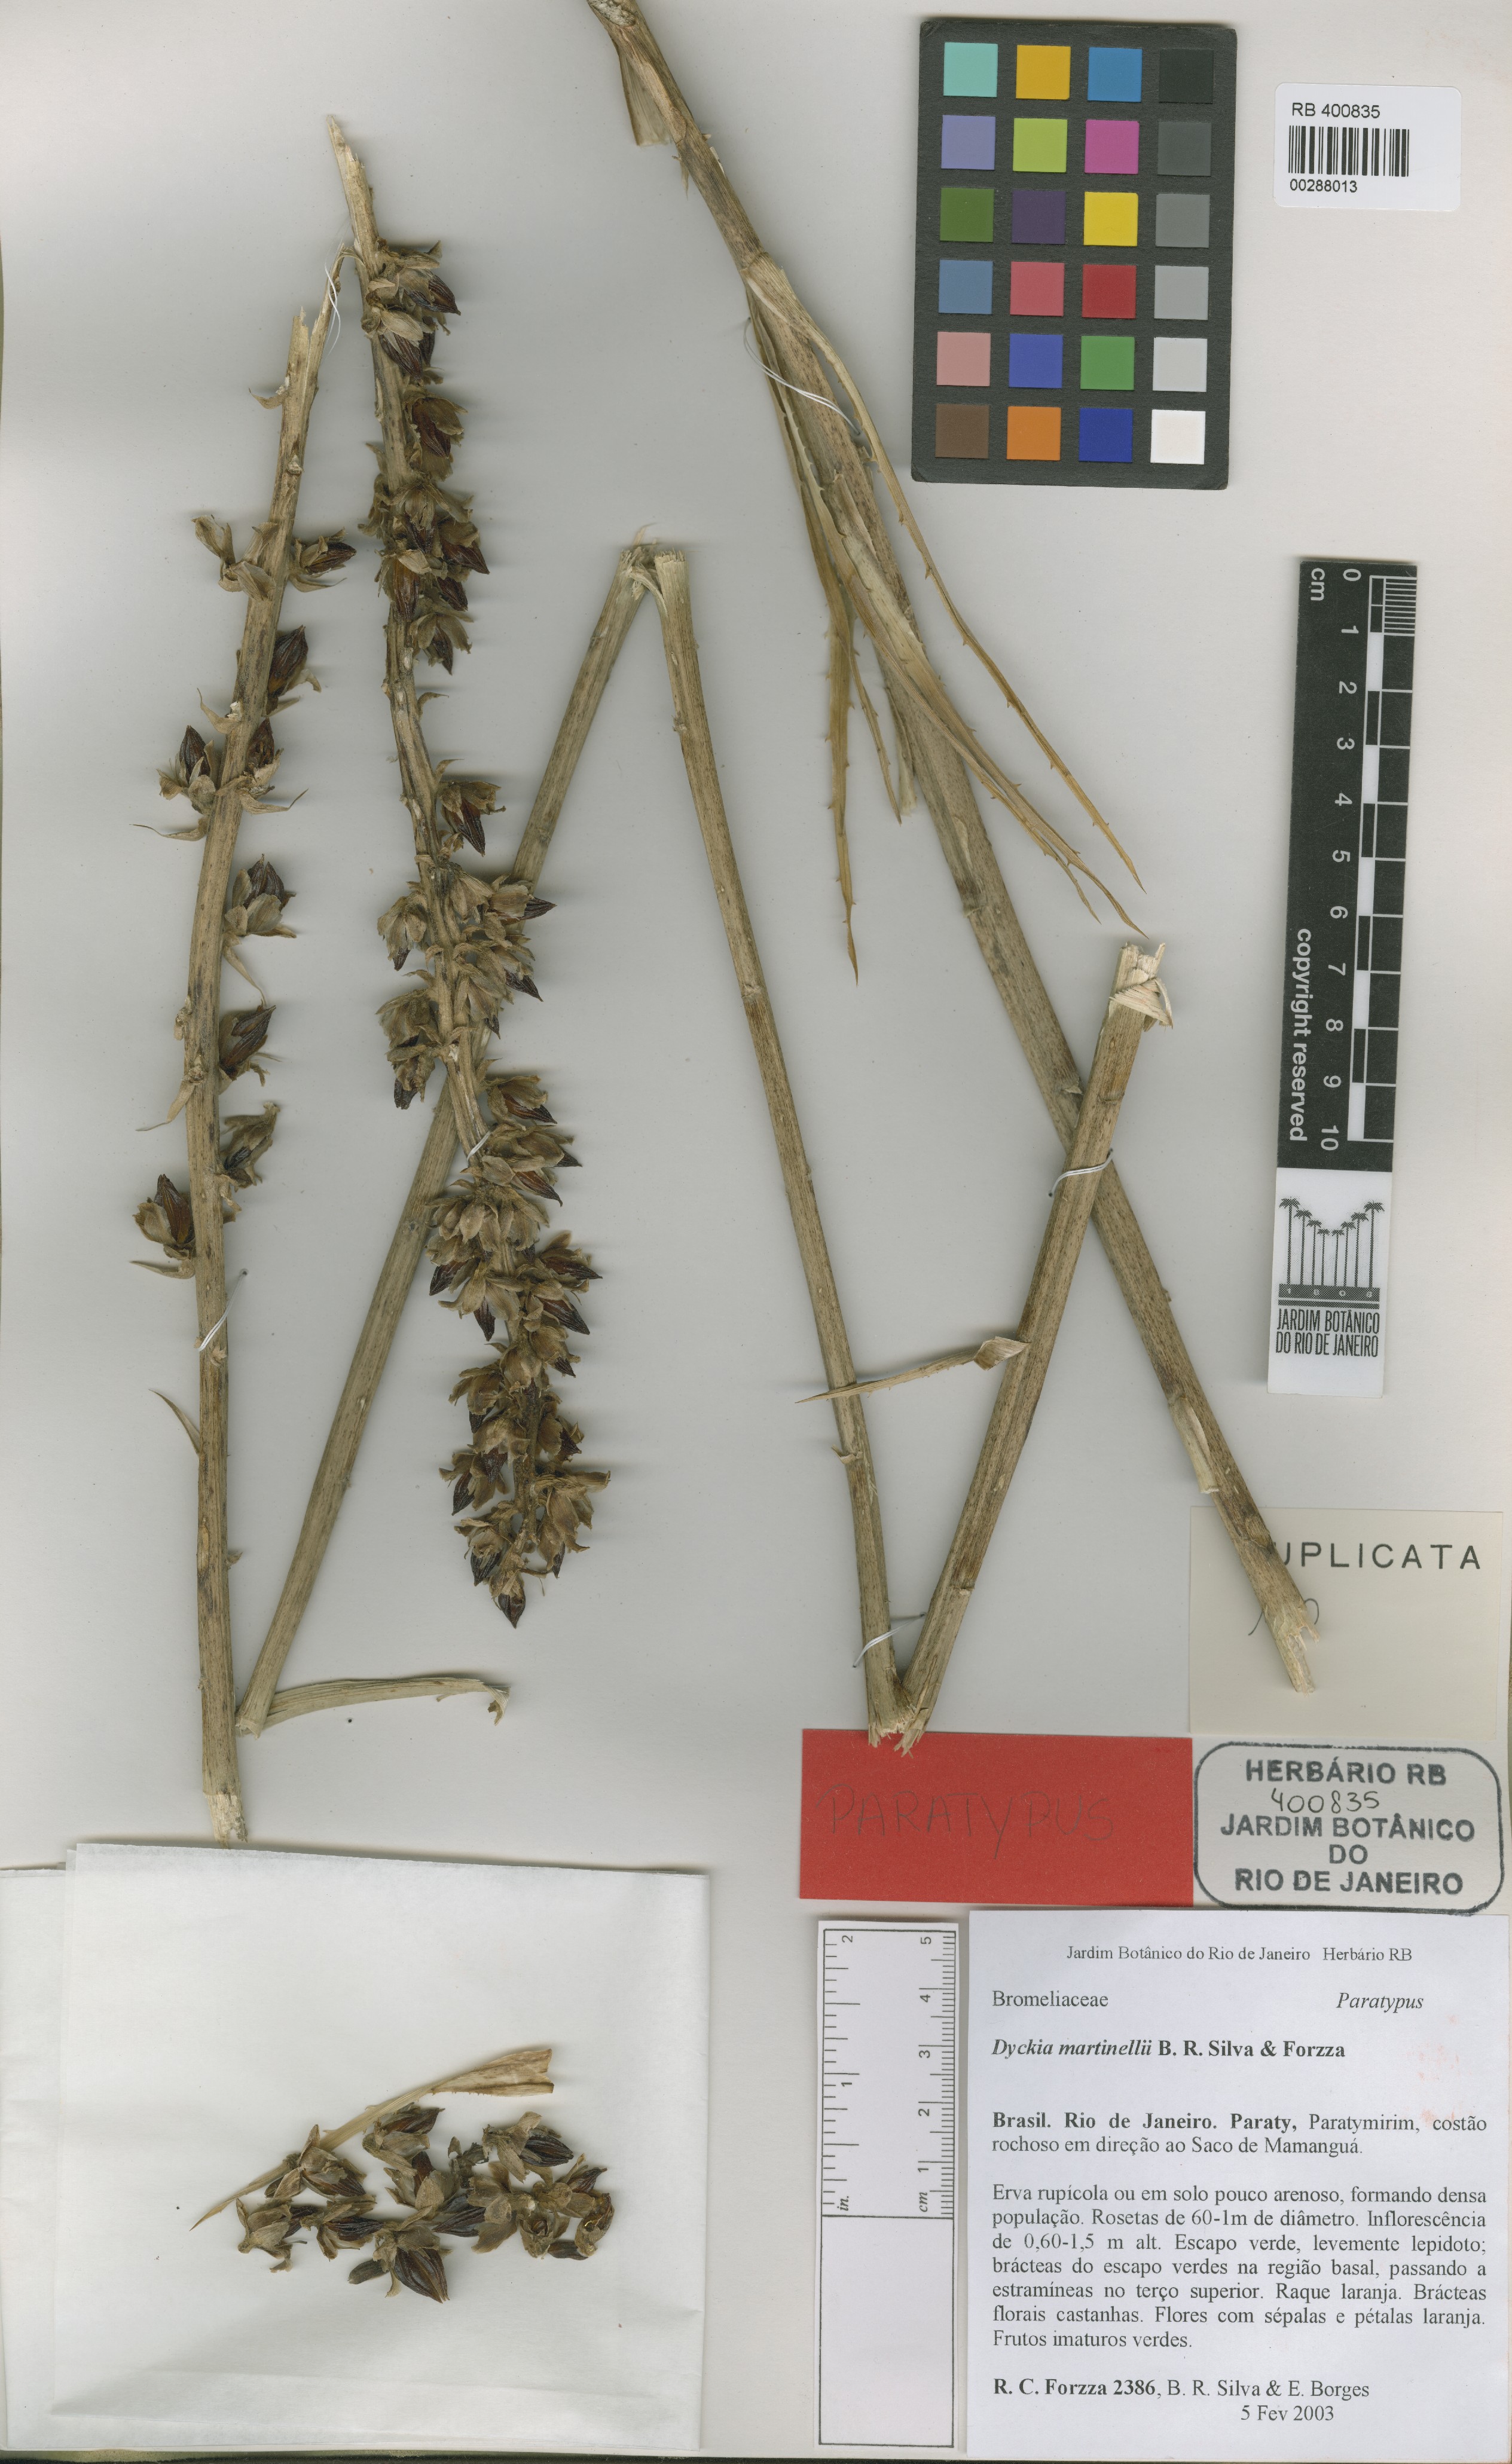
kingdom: Plantae
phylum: Tracheophyta
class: Liliopsida
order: Poales
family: Bromeliaceae
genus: Dyckia
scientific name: Dyckia martinellii
